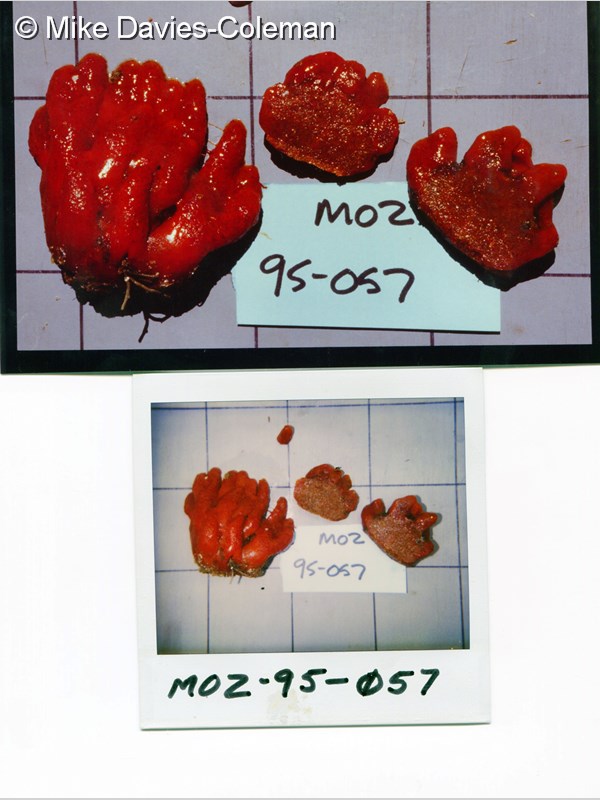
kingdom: Animalia
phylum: Chordata
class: Ascidiacea
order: Aplousobranchia
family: Pseudodistomidae
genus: Pseudodistoma
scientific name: Pseudodistoma
